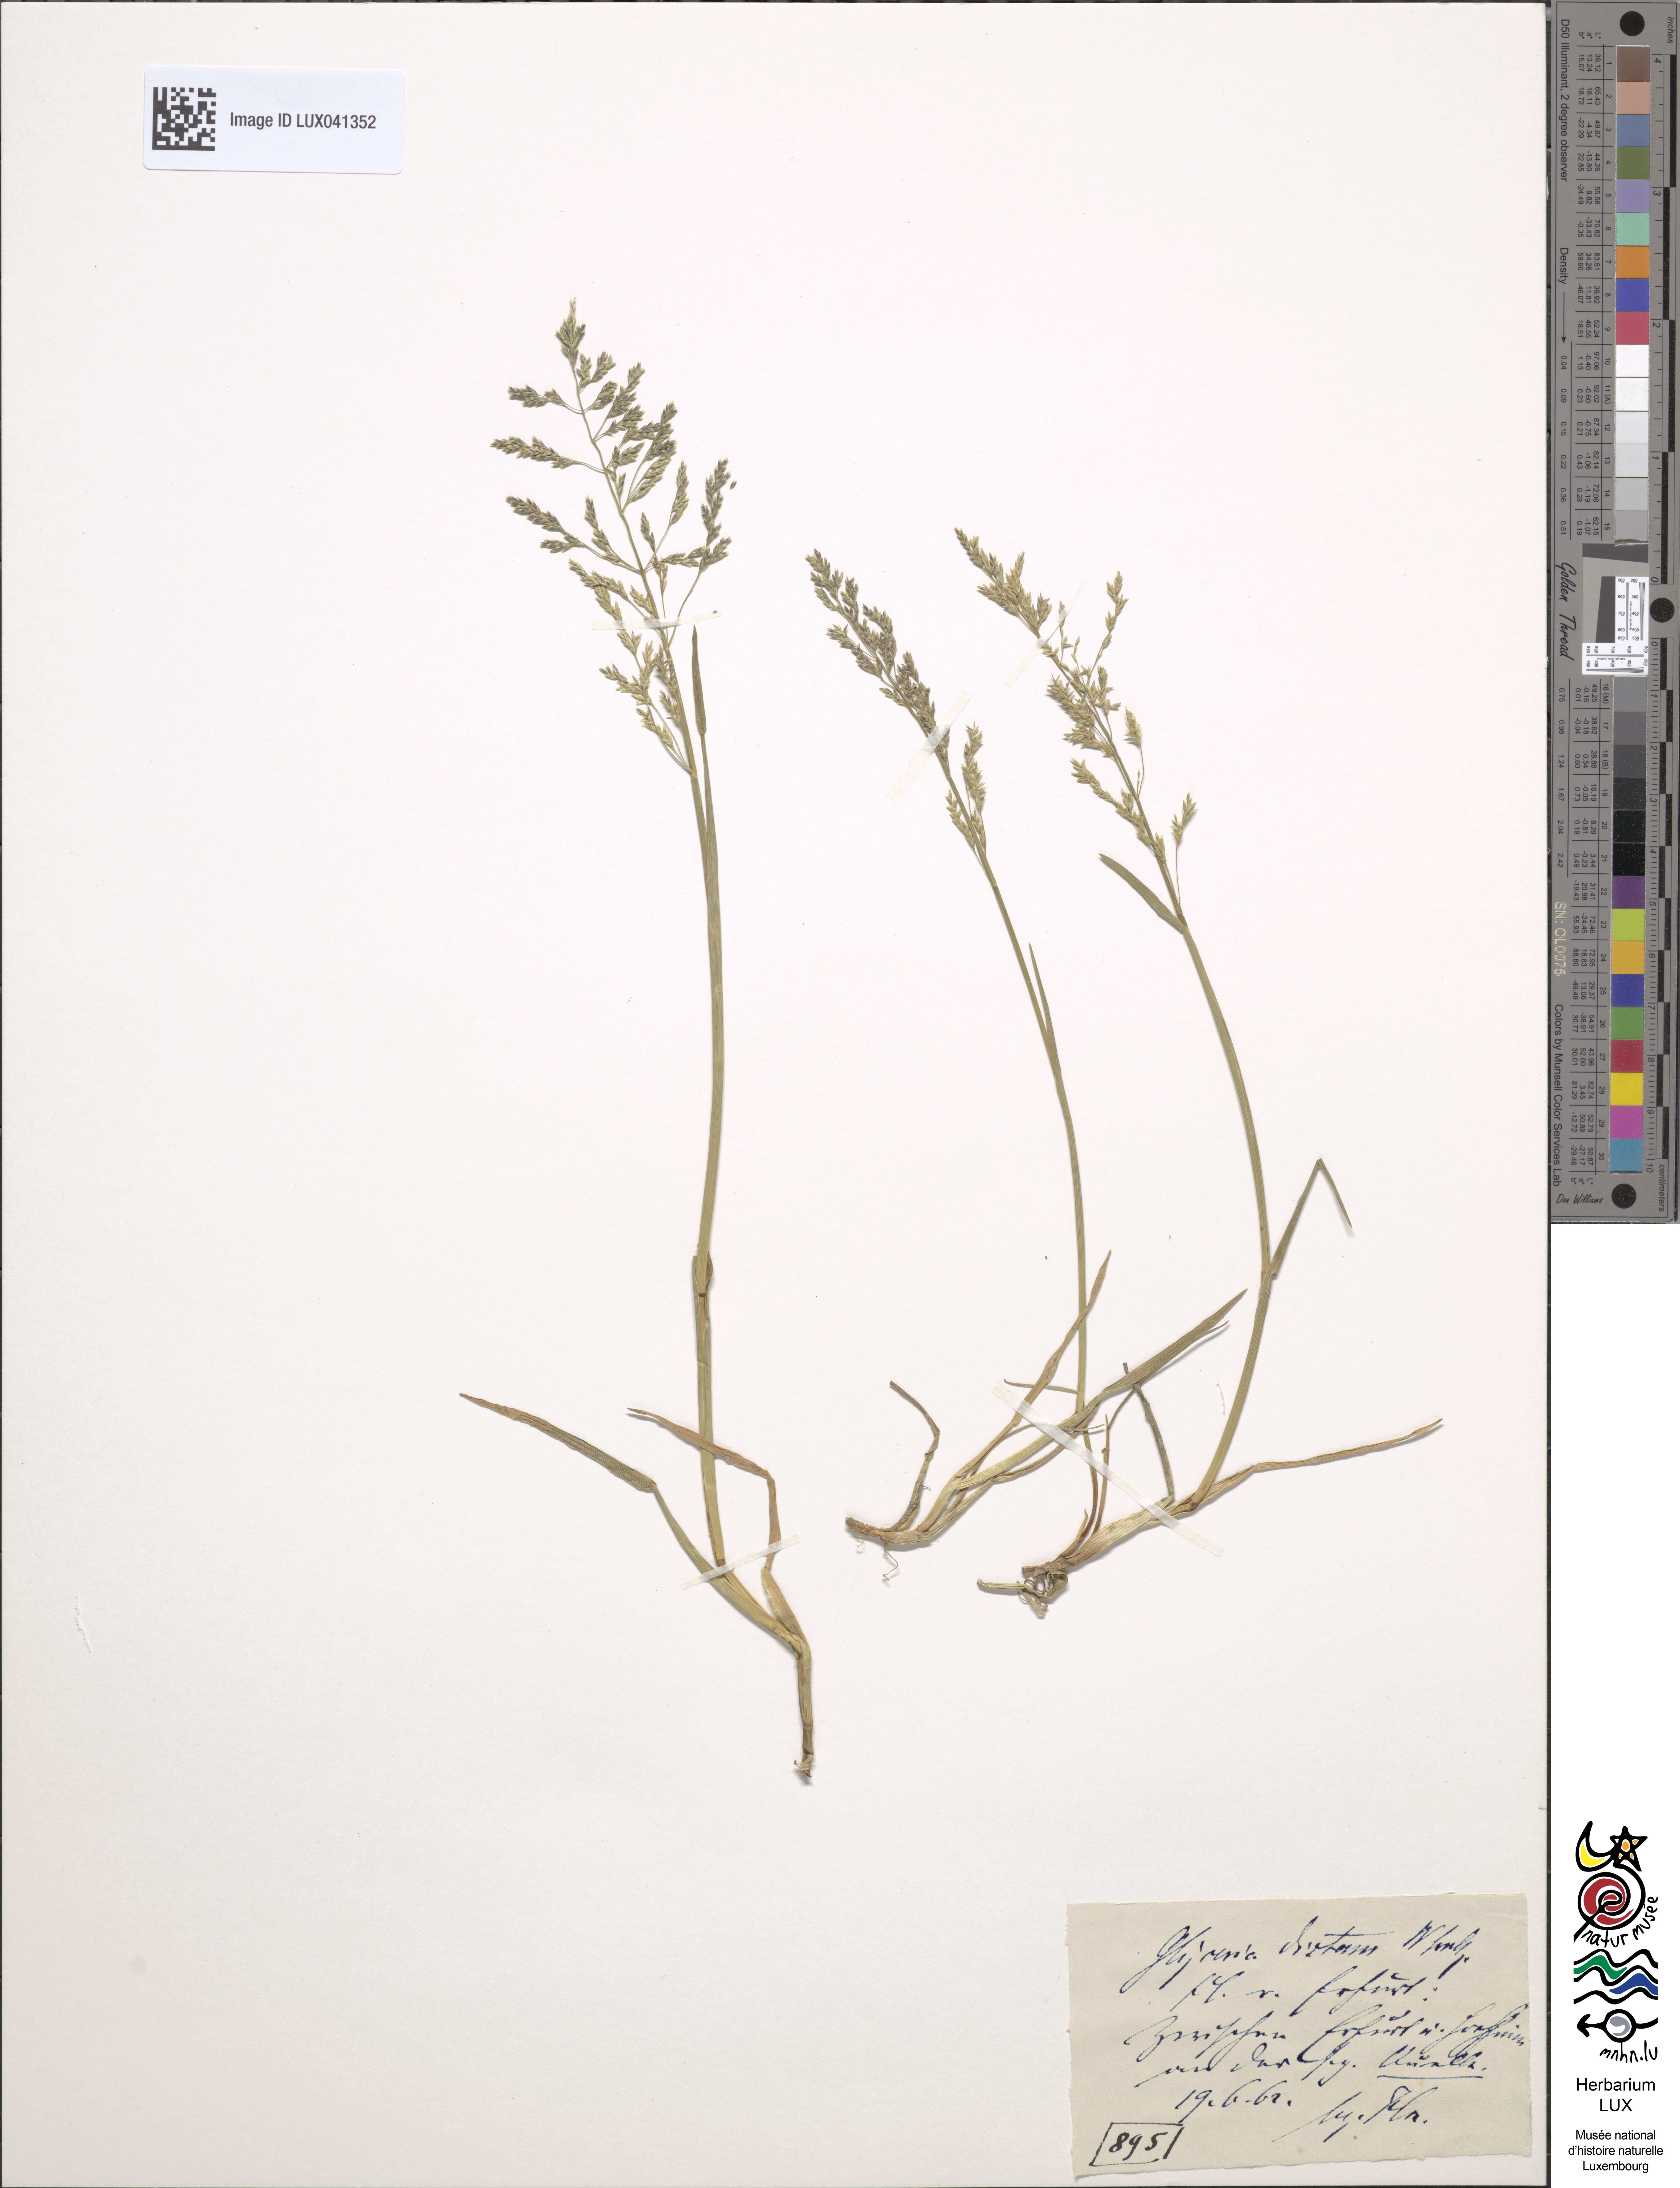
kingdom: Plantae
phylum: Tracheophyta
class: Liliopsida
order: Poales
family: Poaceae
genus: Puccinellia
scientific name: Puccinellia distans
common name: Weeping alkaligrass
